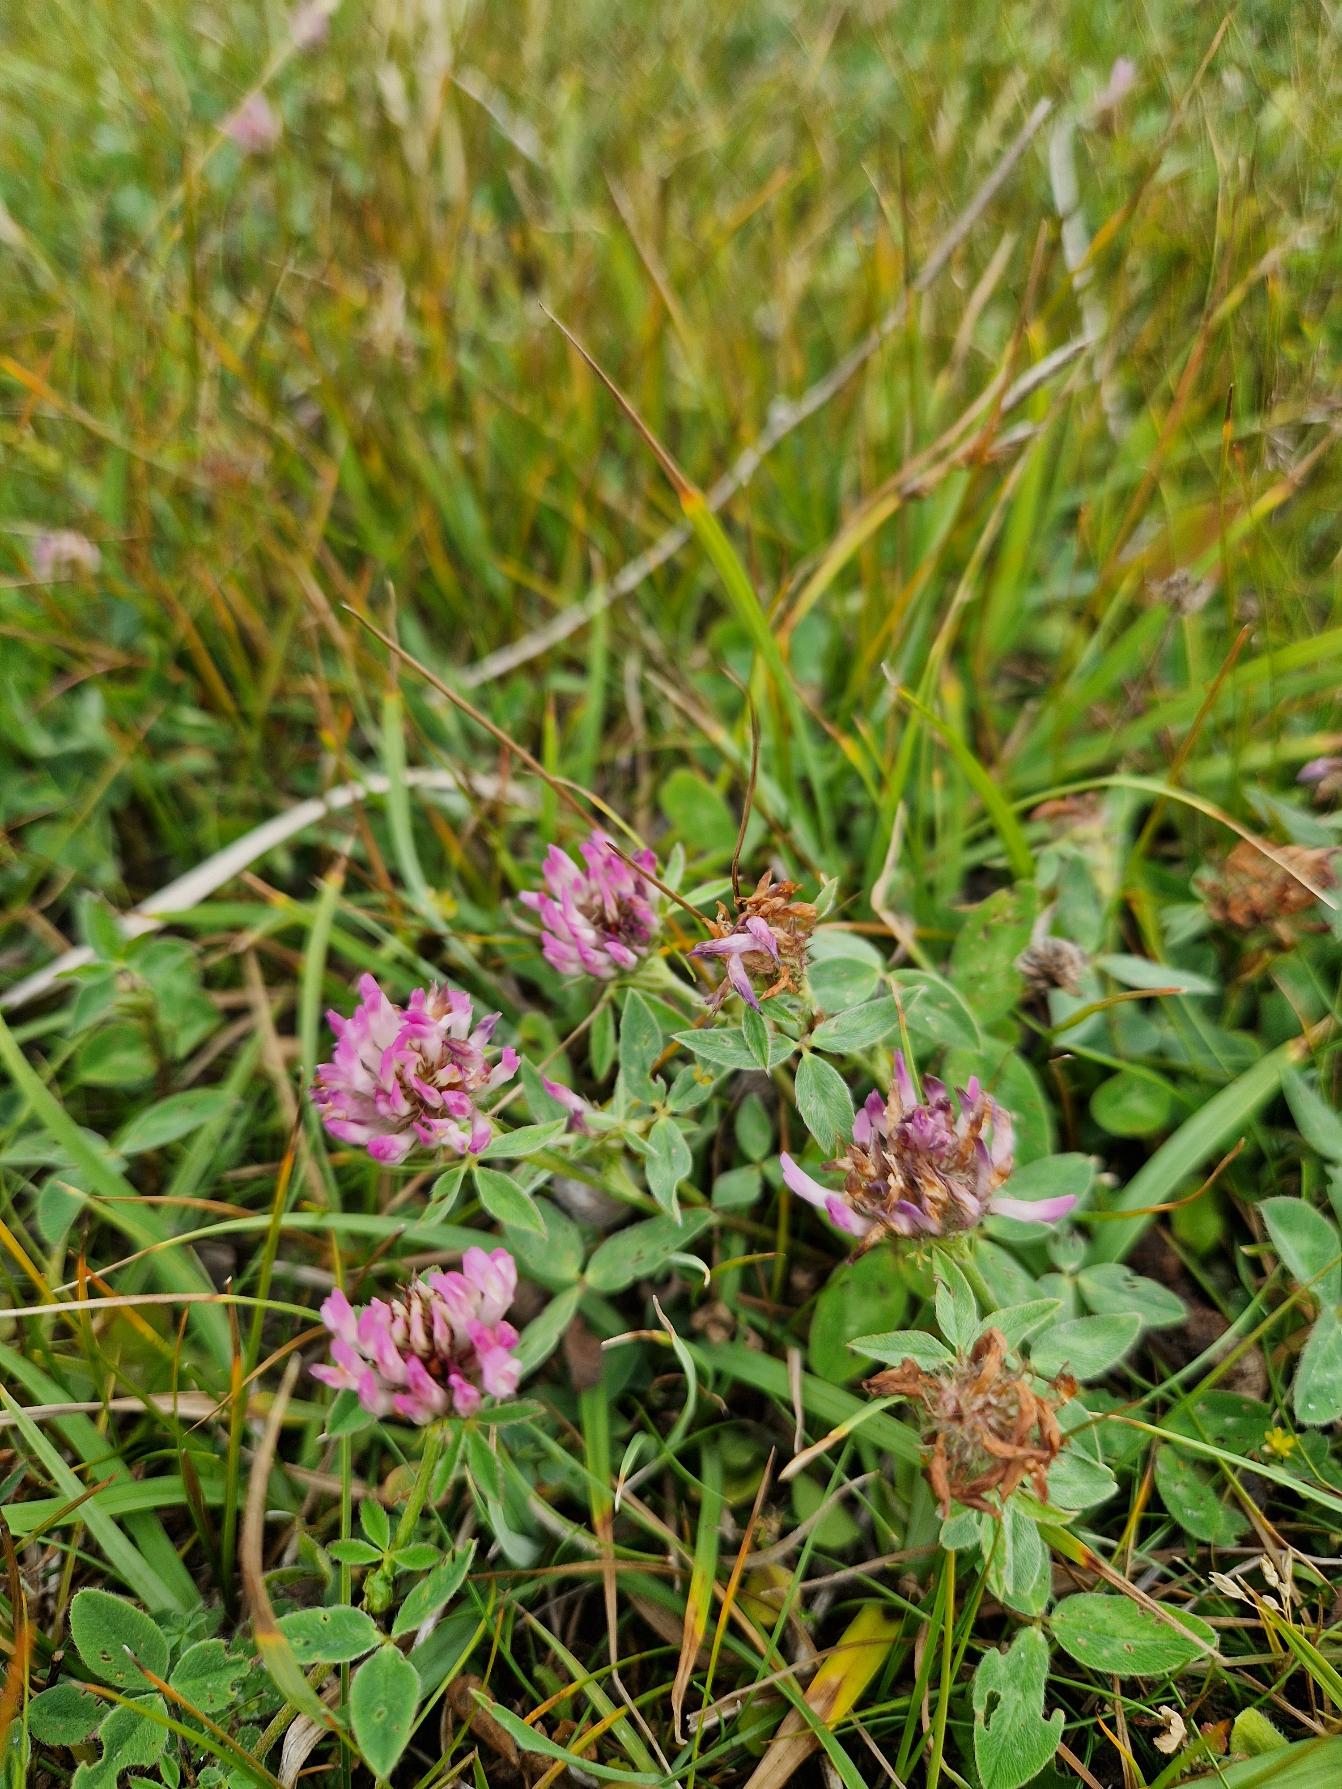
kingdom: Plantae
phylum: Tracheophyta
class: Magnoliopsida
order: Fabales
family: Fabaceae
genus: Trifolium
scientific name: Trifolium pratense
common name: Rød-kløver
